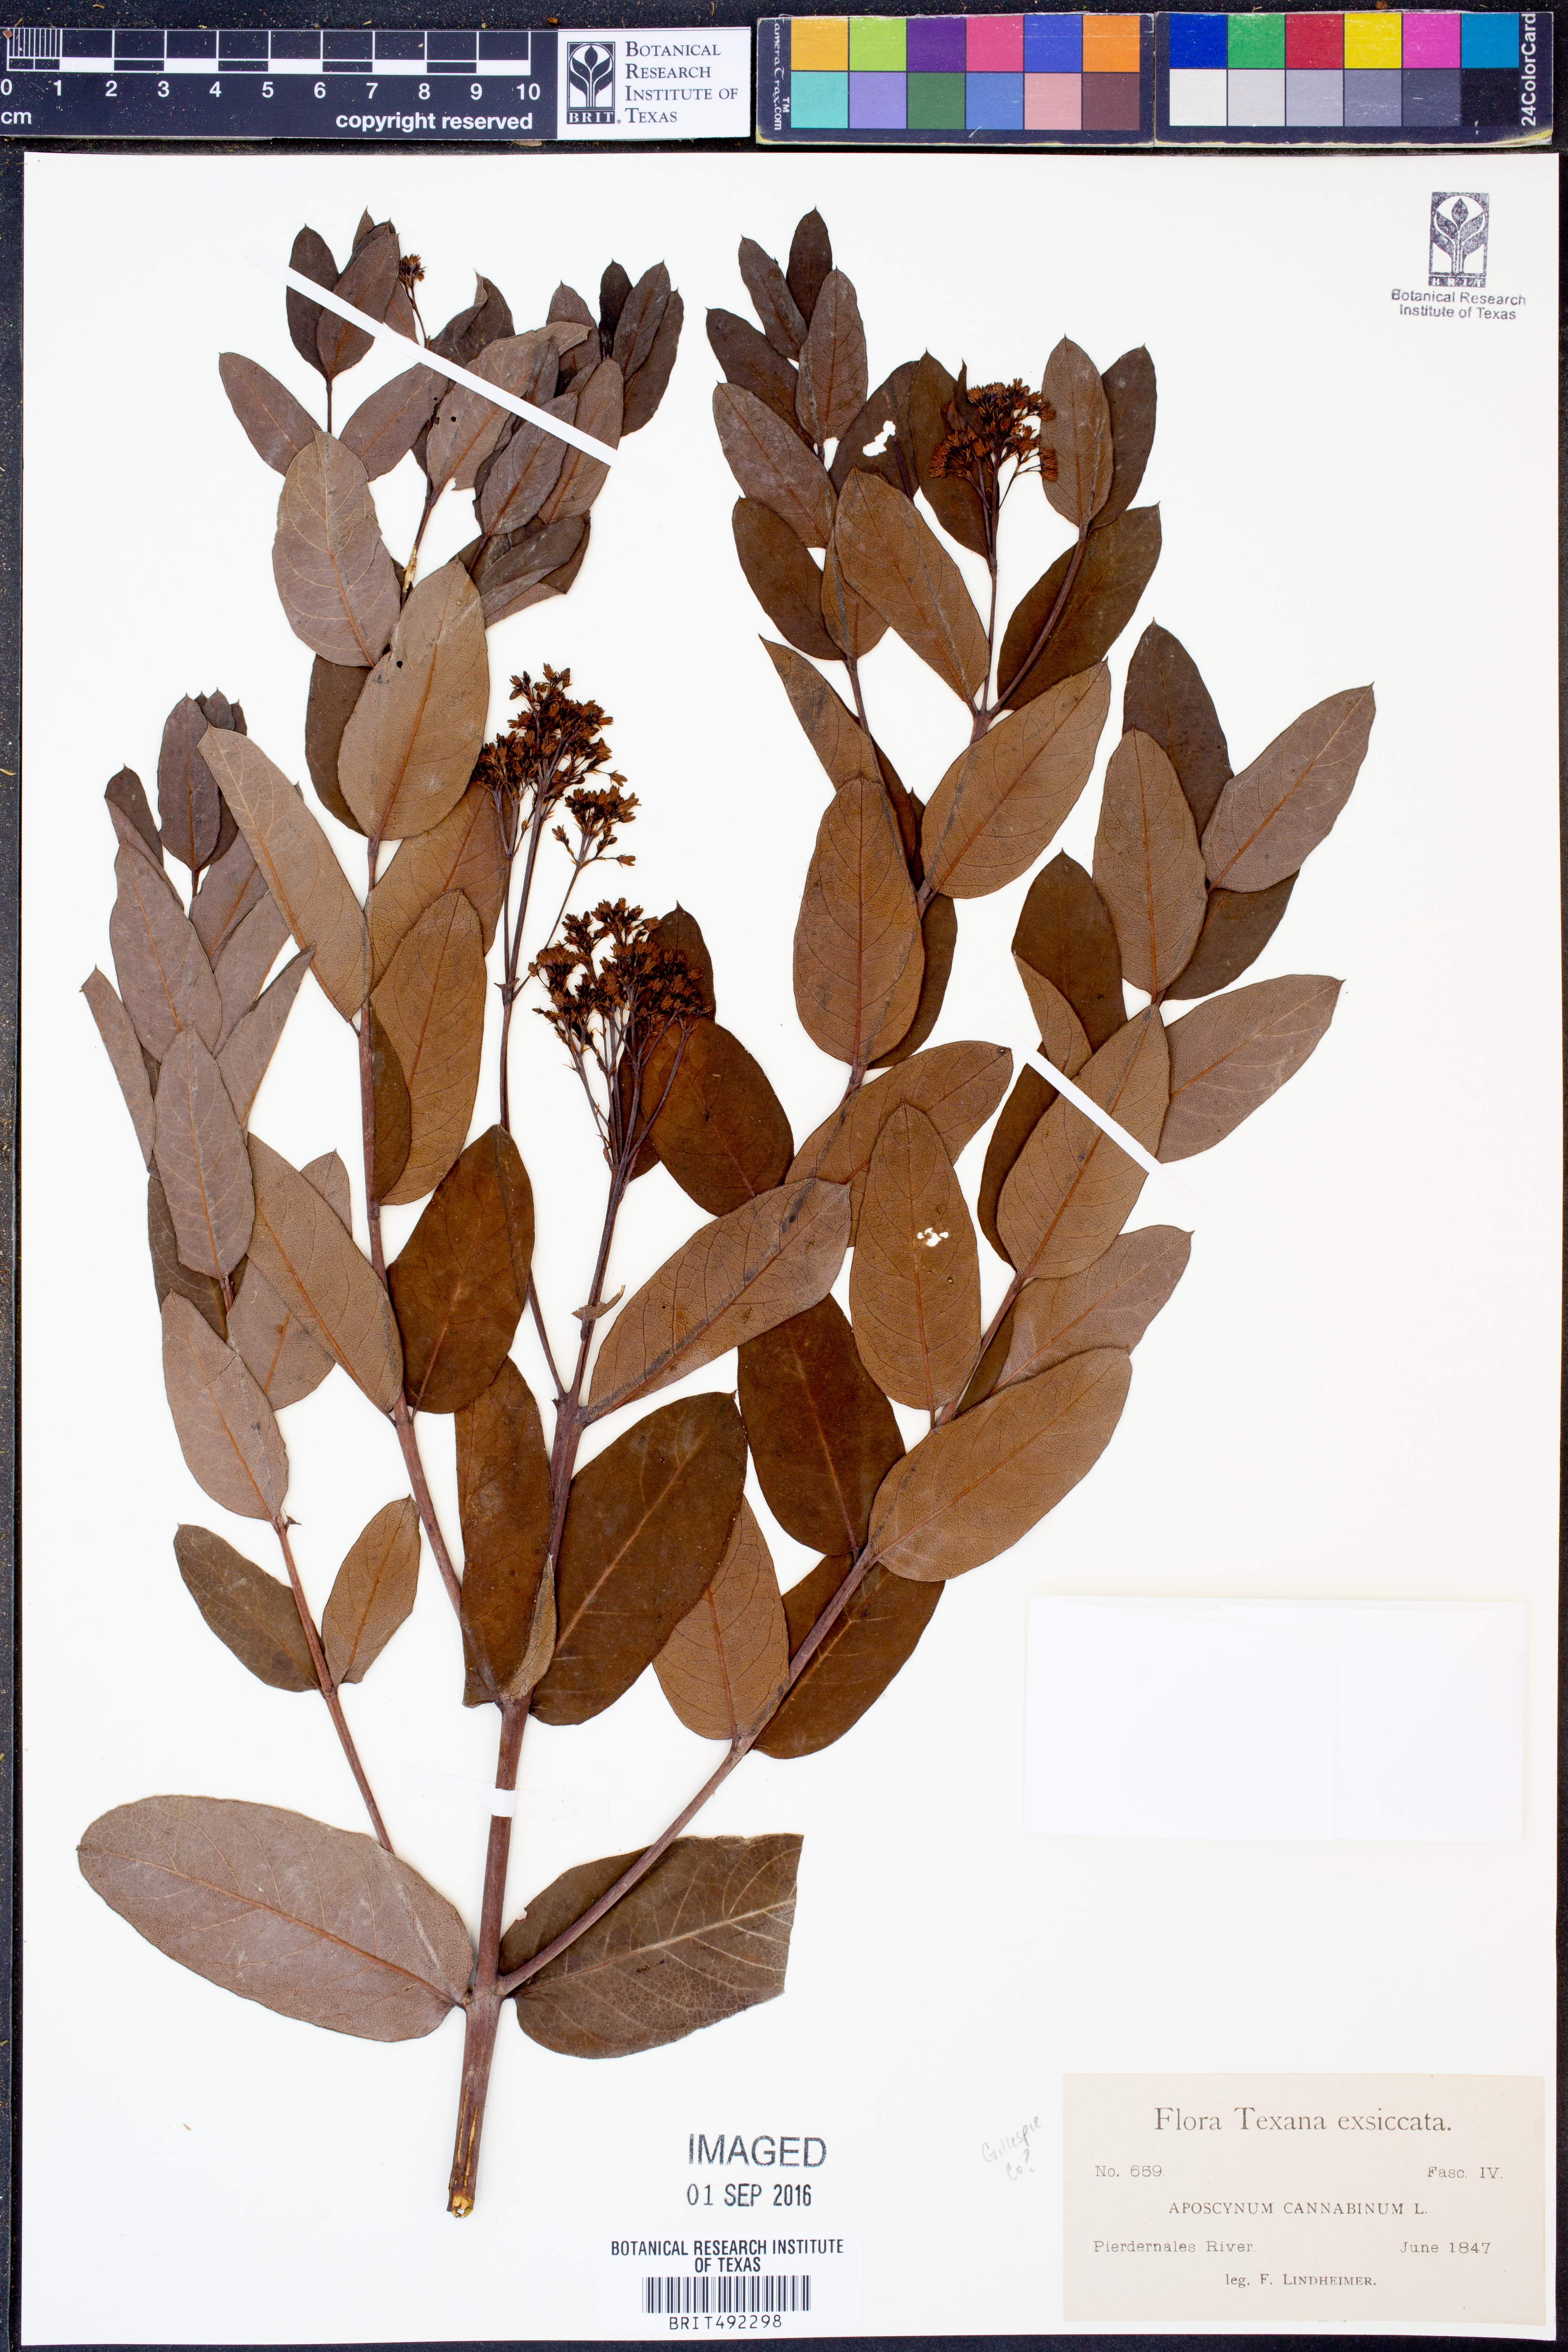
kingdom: Plantae
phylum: Tracheophyta
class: Magnoliopsida
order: Gentianales
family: Apocynaceae
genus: Apocynum
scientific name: Apocynum cannabinum
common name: Hemp dogbane
